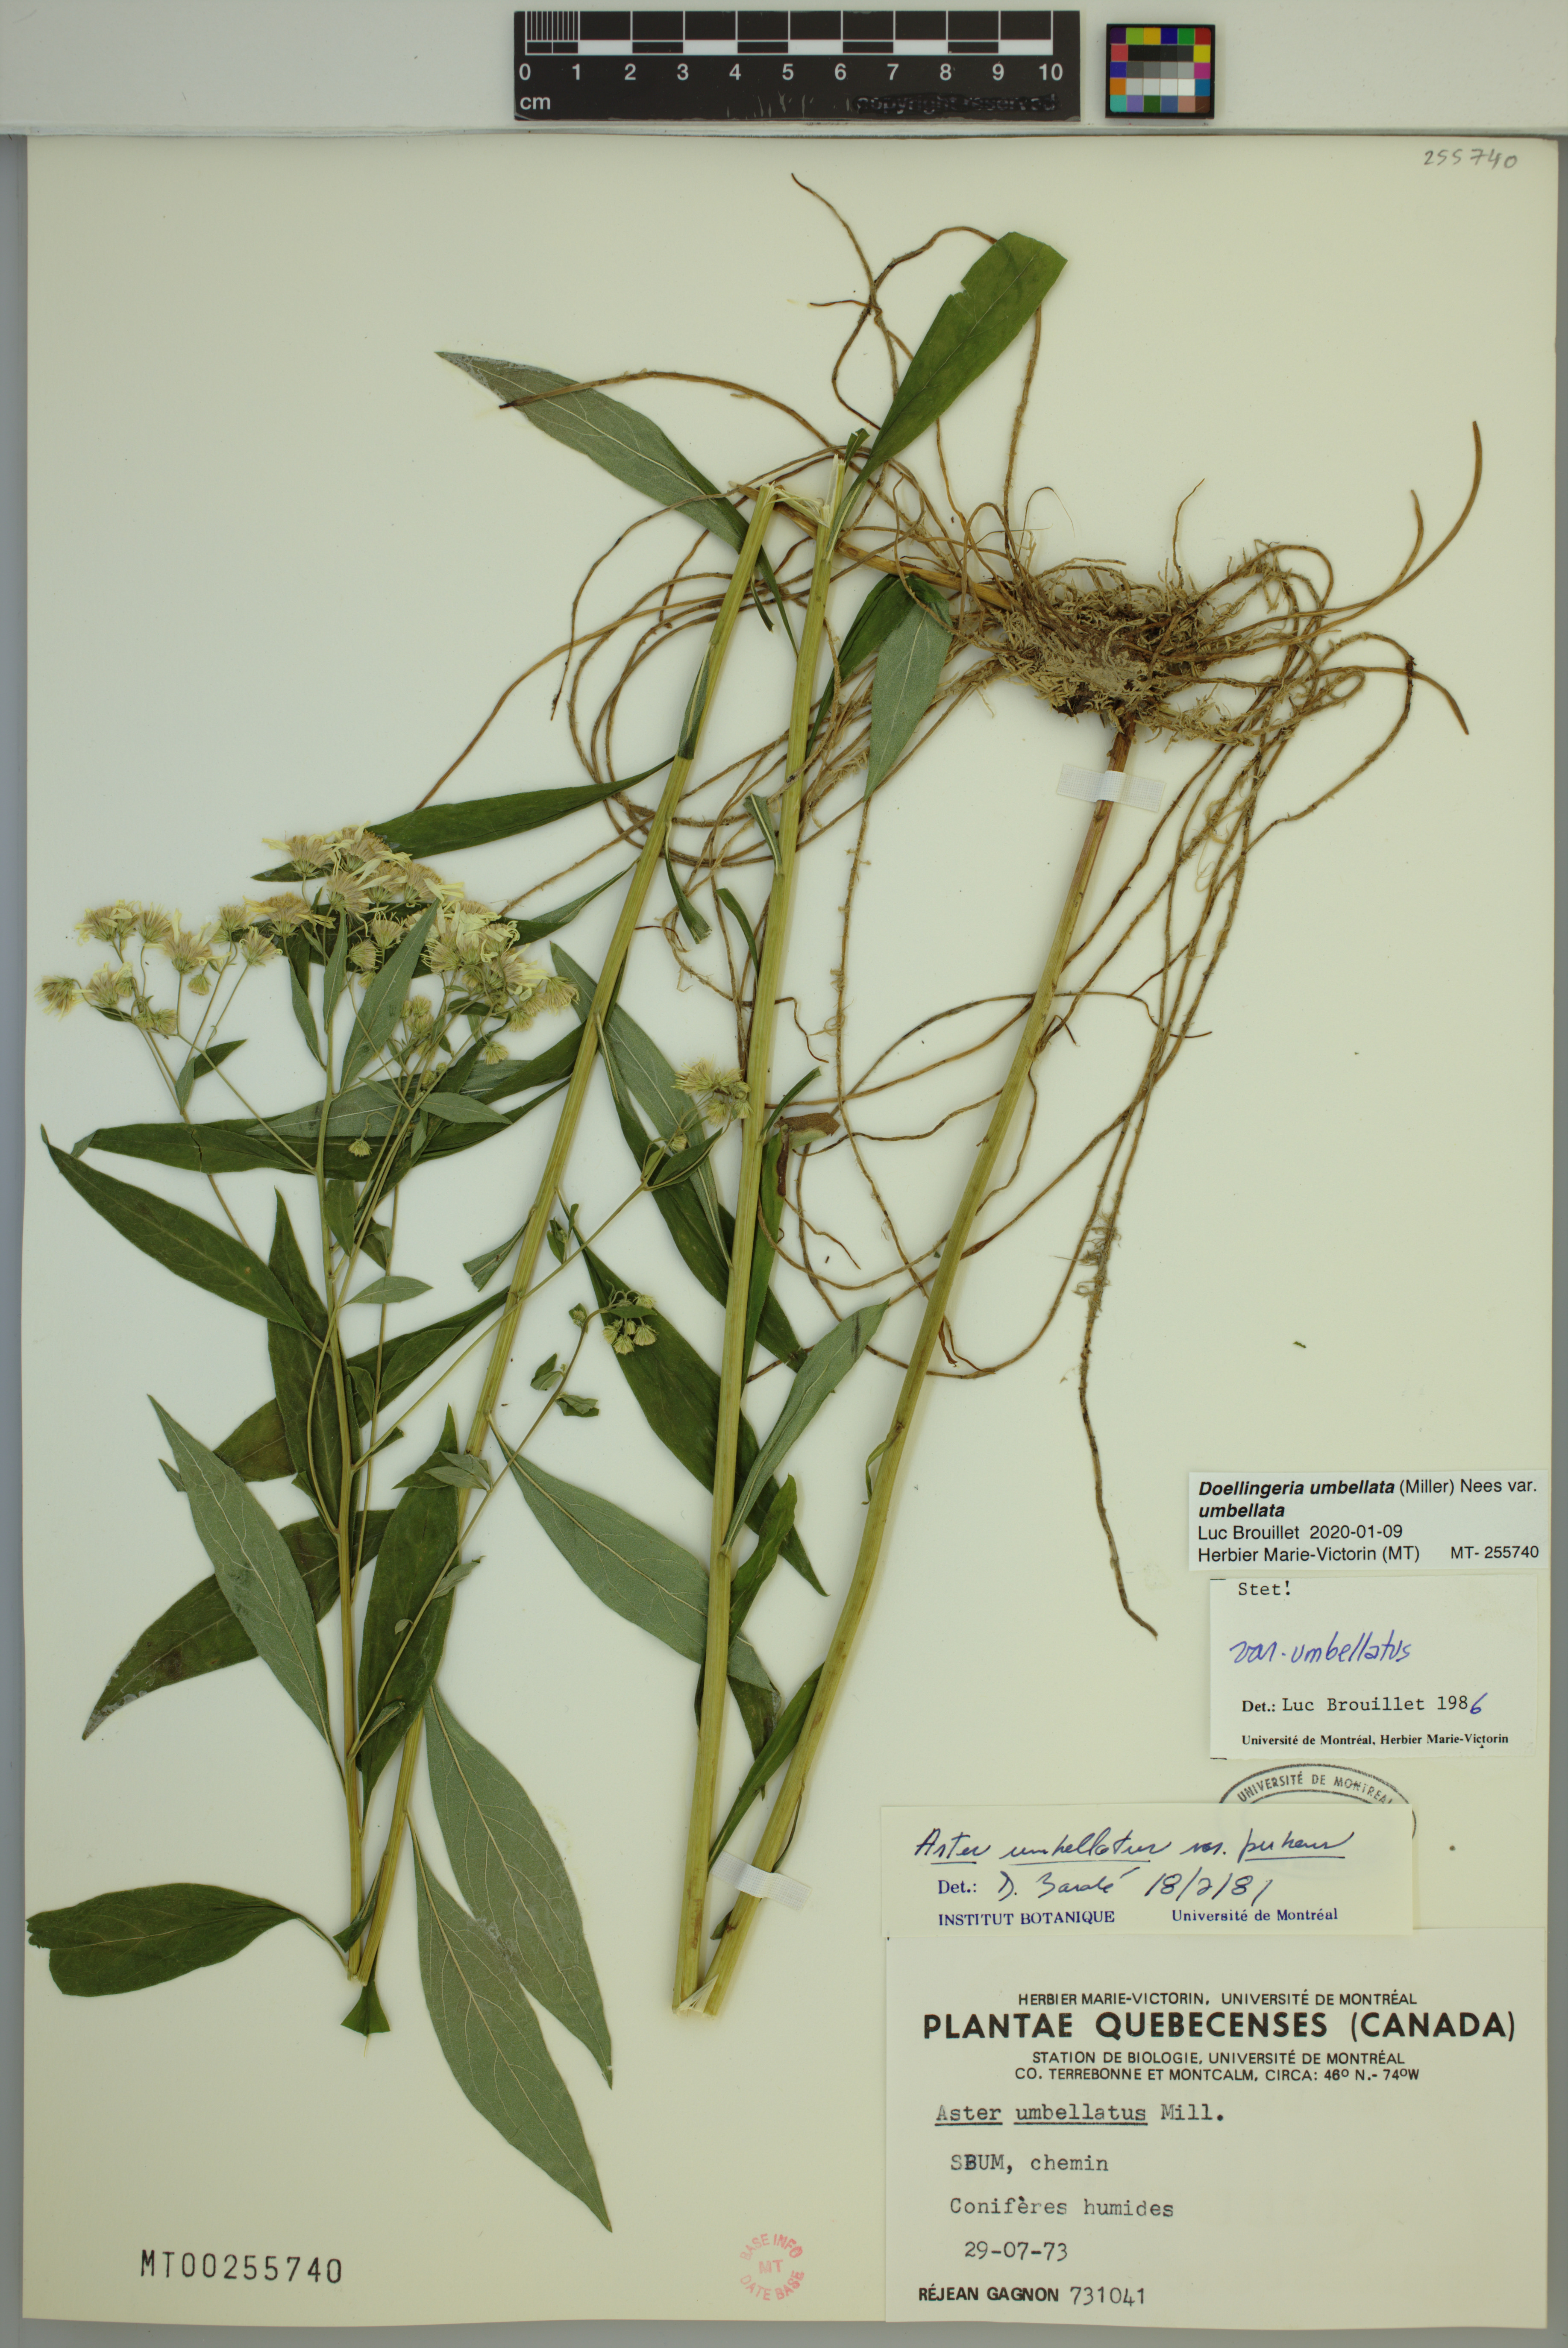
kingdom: Plantae
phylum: Tracheophyta
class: Magnoliopsida
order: Asterales
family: Asteraceae
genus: Doellingeria
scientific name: Doellingeria umbellata
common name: Flat-top white aster
